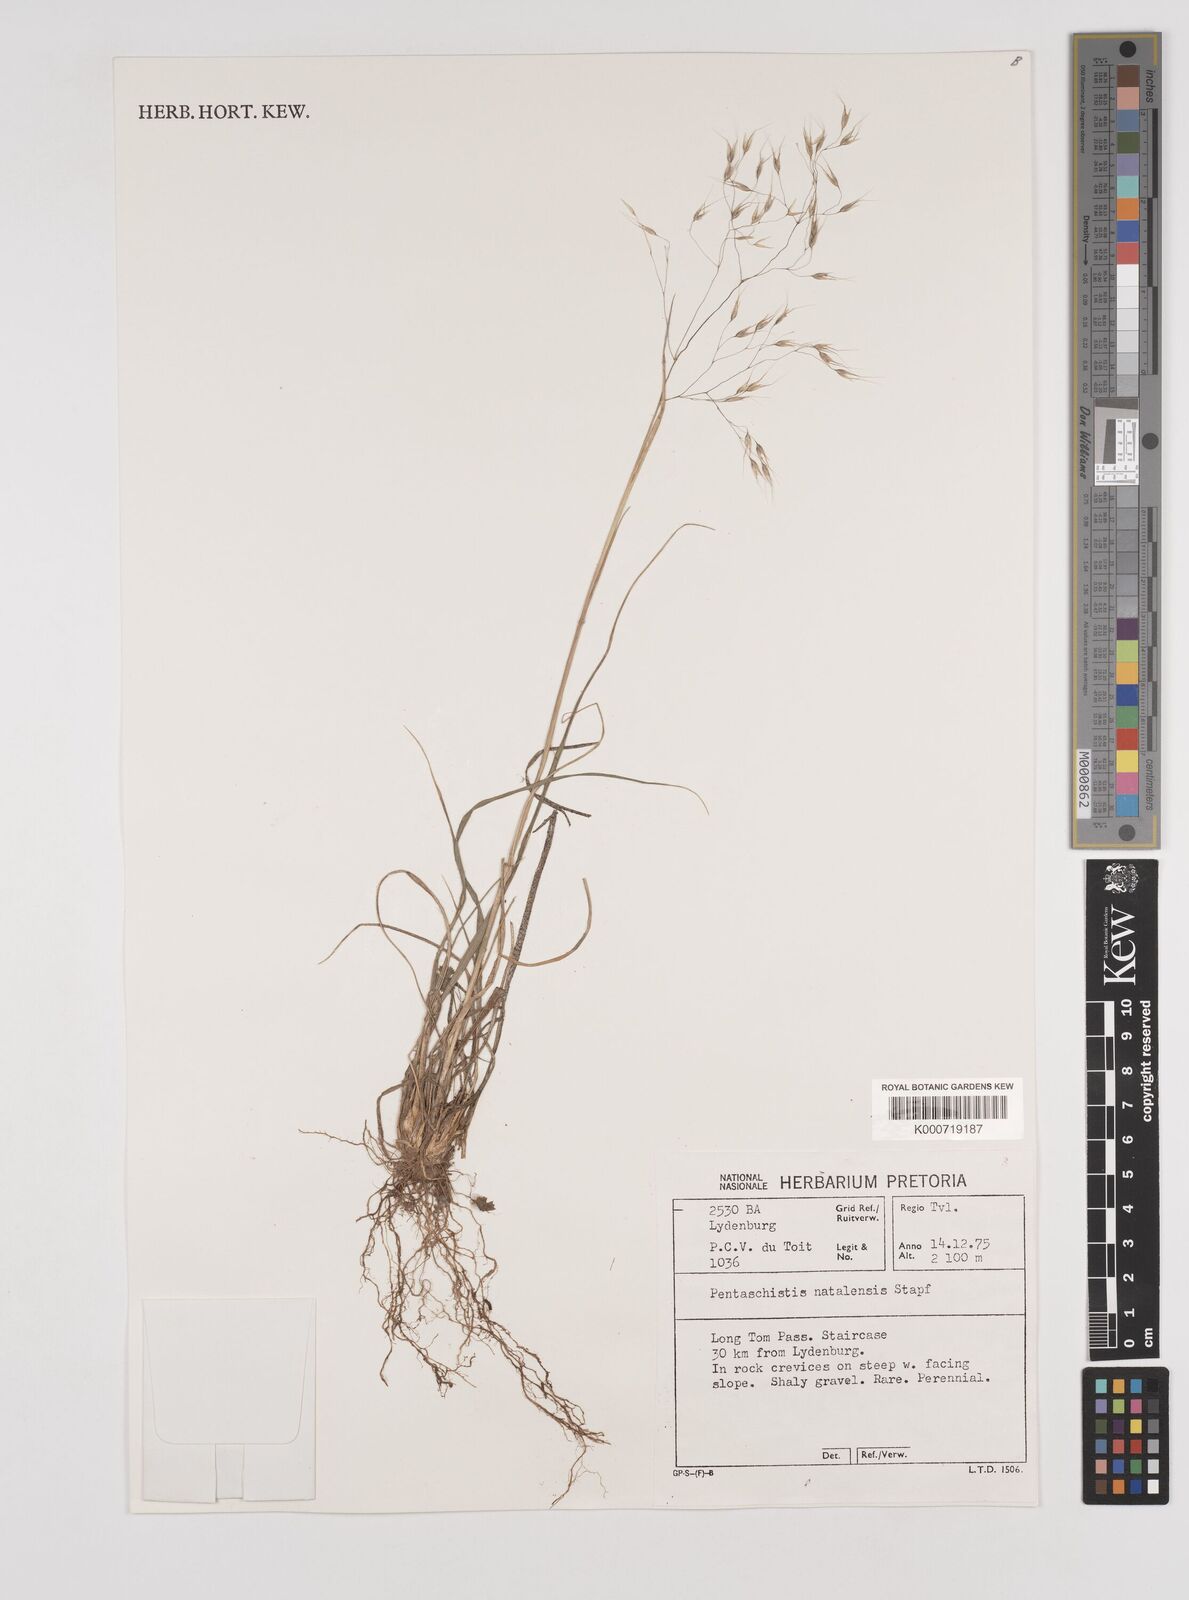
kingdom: Plantae
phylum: Tracheophyta
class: Liliopsida
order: Poales
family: Poaceae
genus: Pentameris
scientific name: Pentameris natalensis
